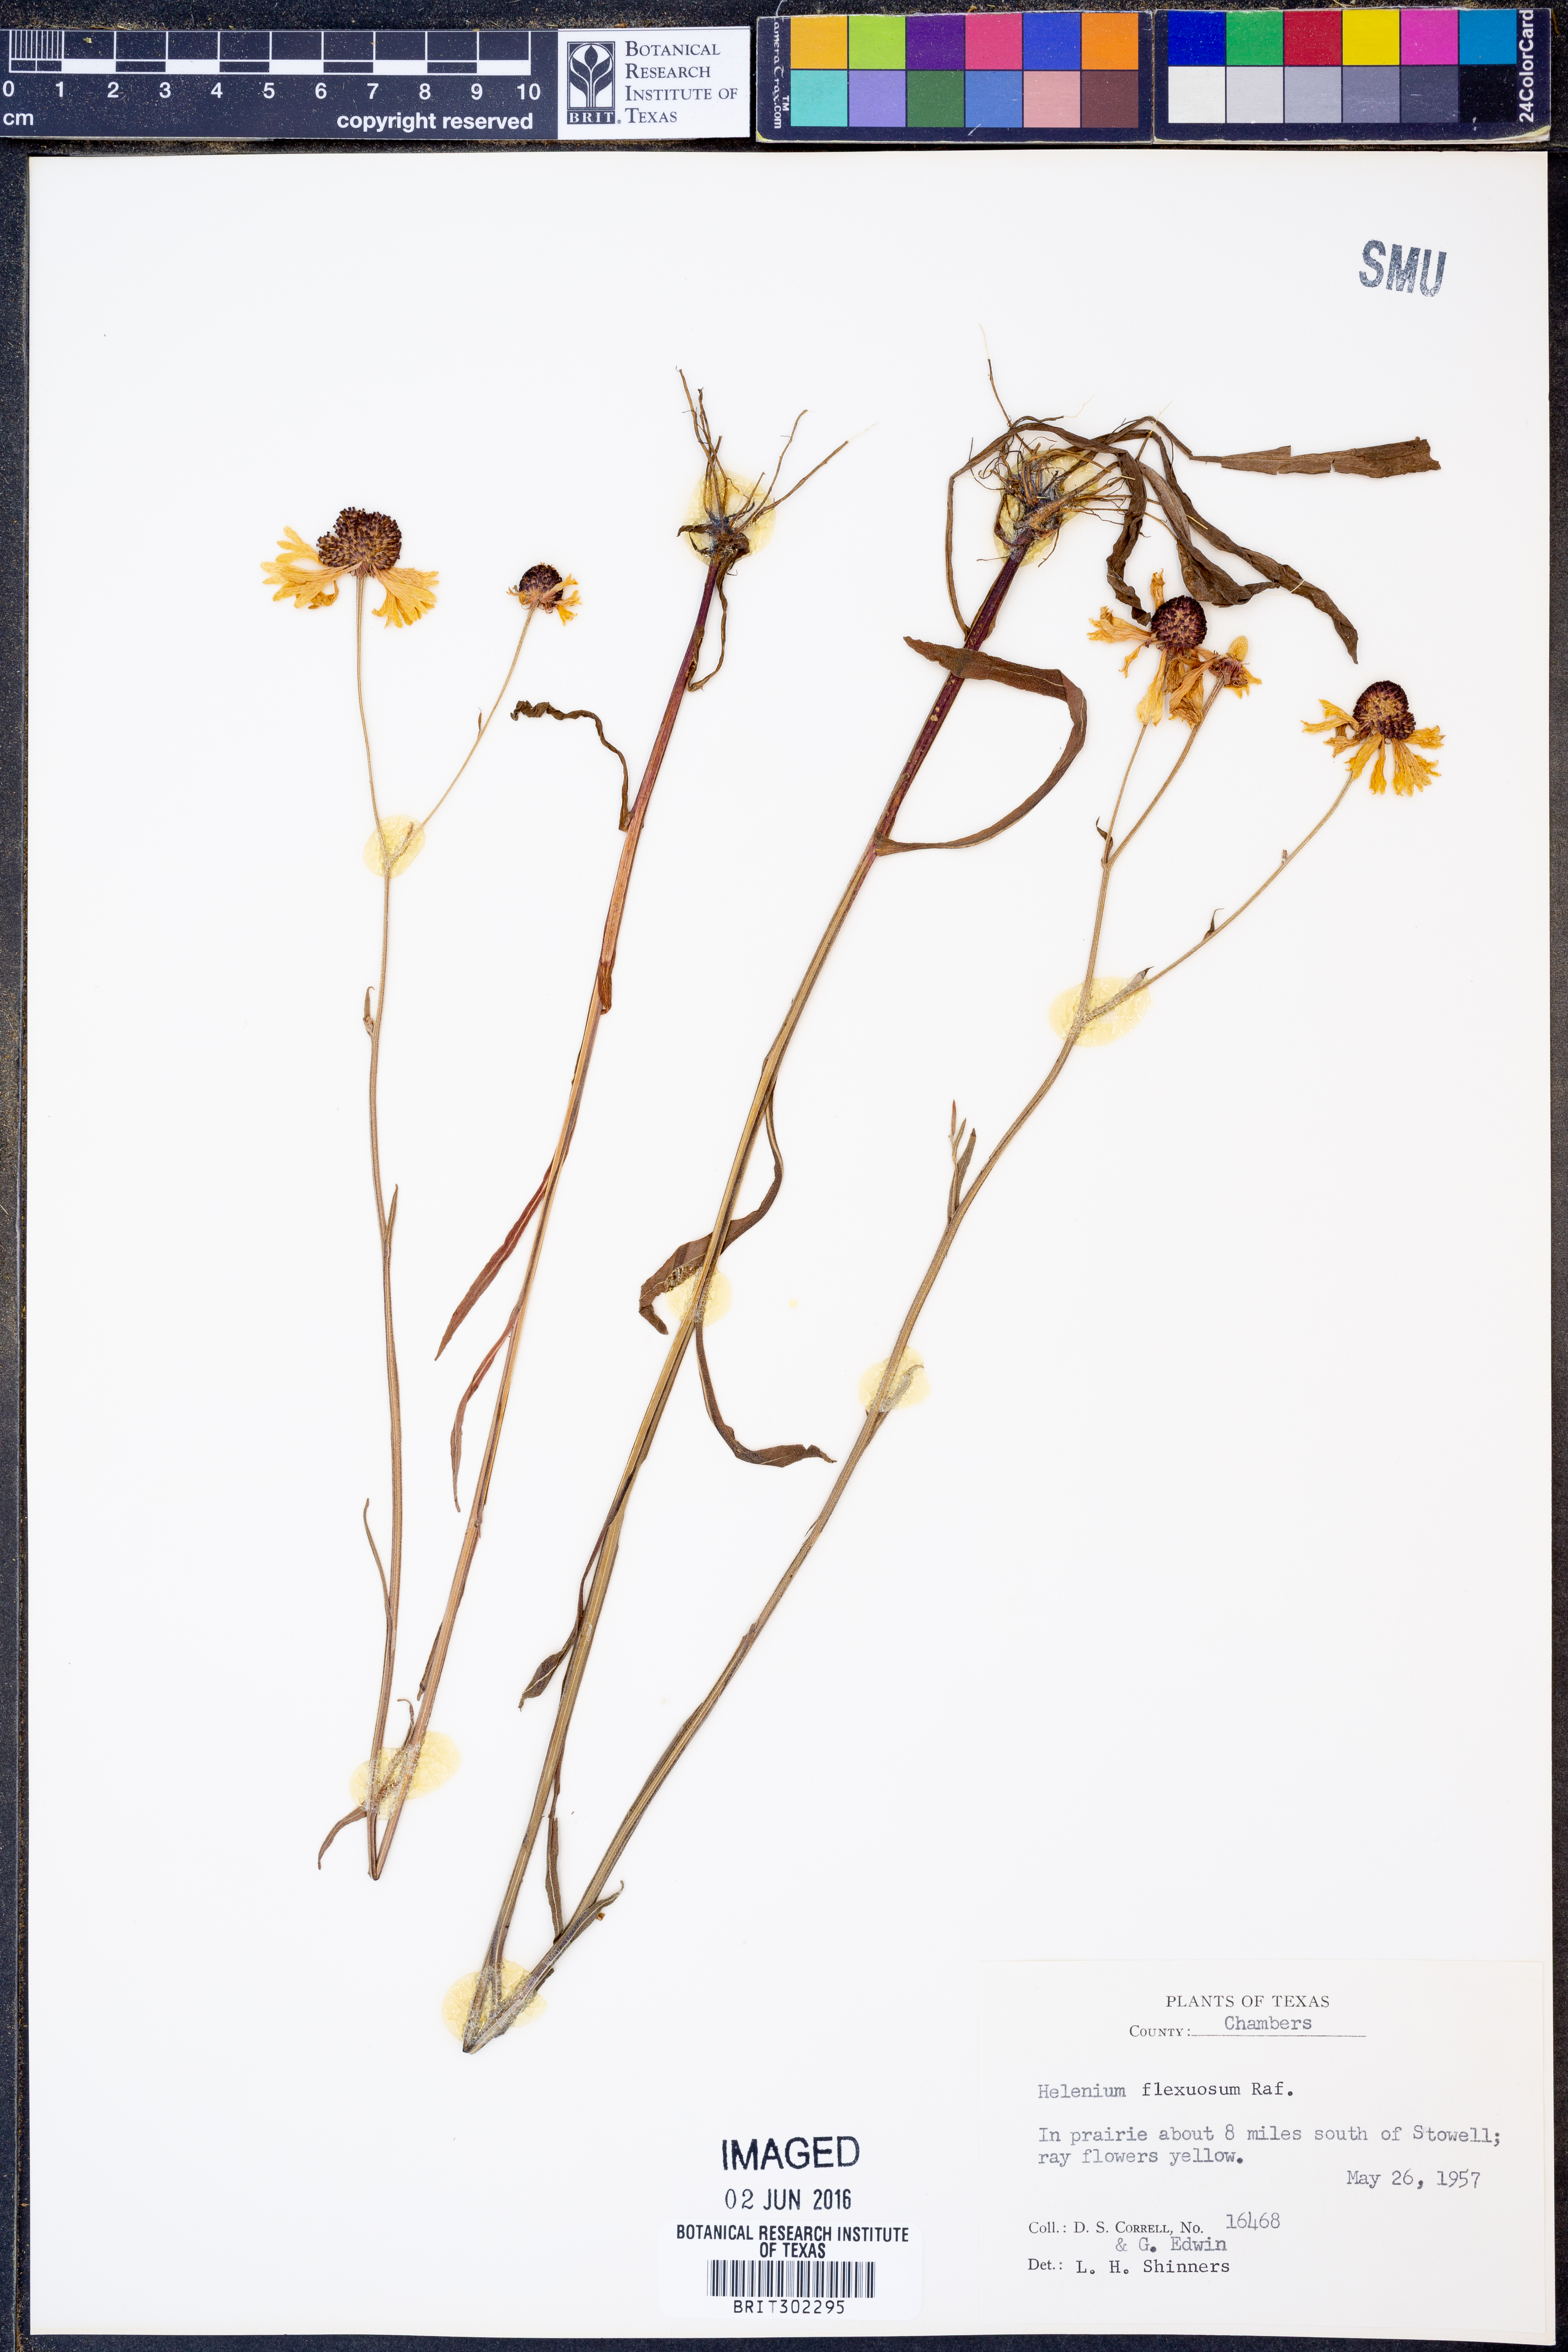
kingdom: Plantae
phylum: Tracheophyta
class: Magnoliopsida
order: Asterales
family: Asteraceae
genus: Helenium
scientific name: Helenium flexuosum
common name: Naked-flowered sneezeweed
